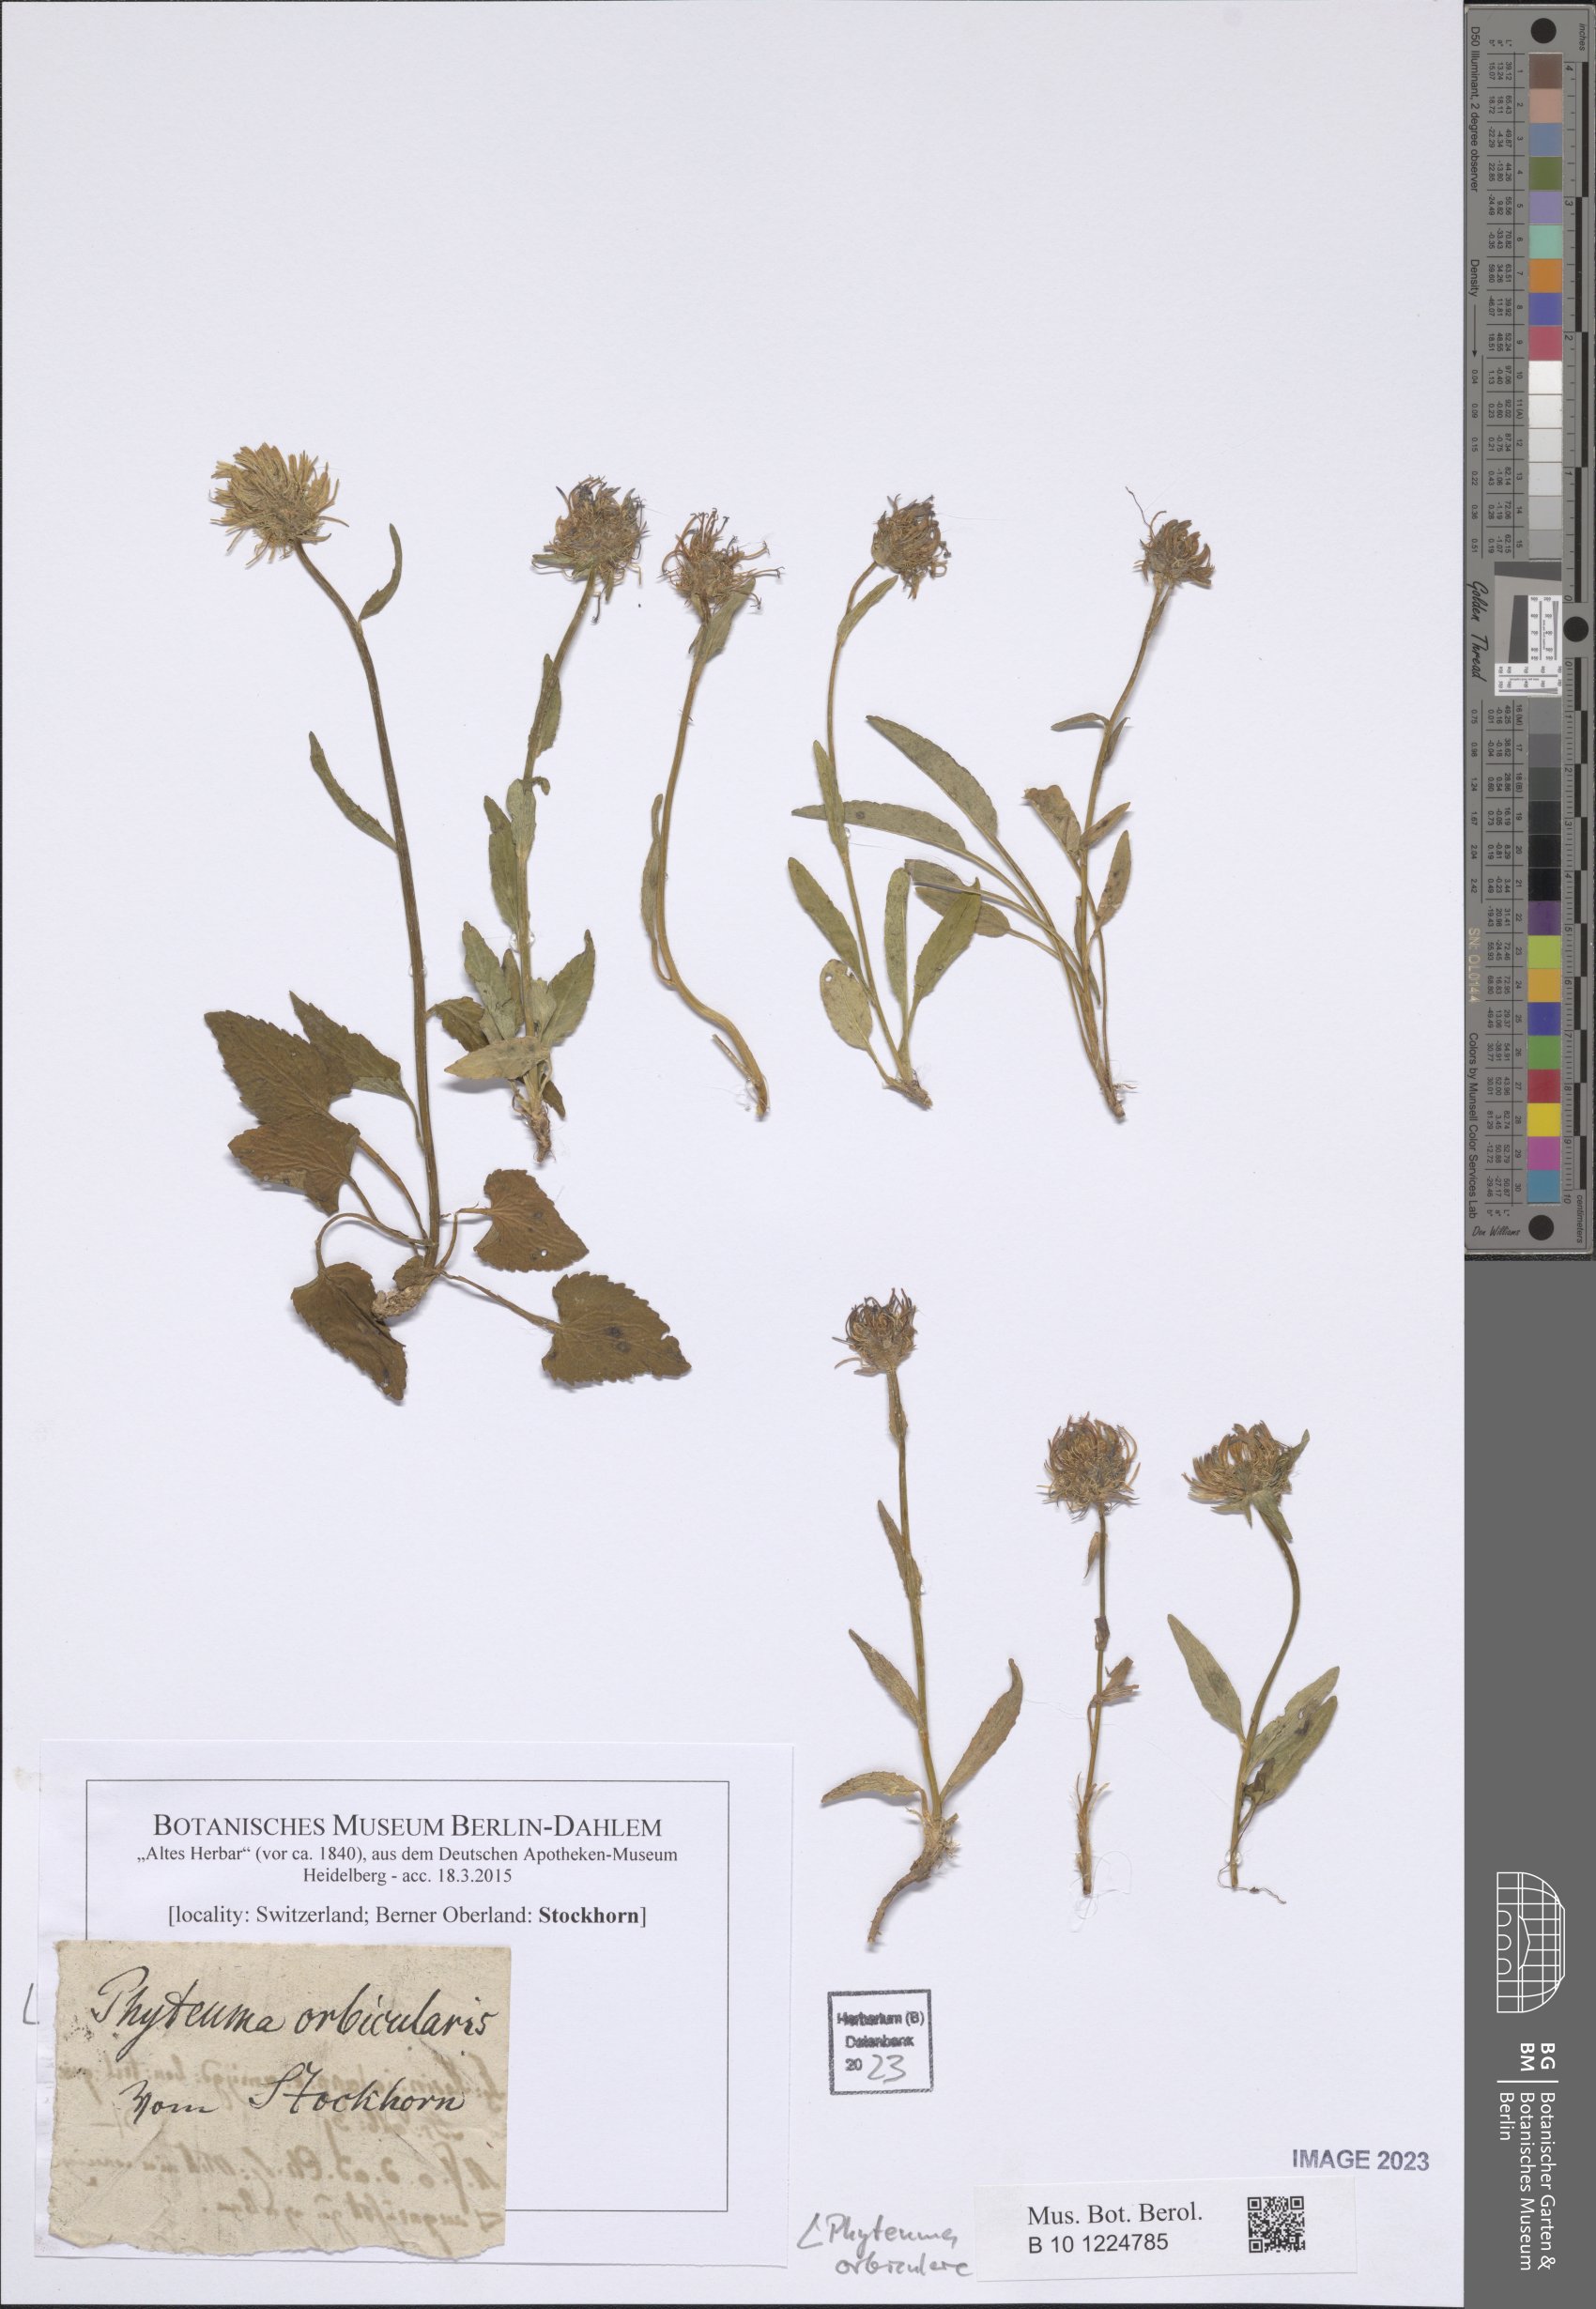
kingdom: Plantae
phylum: Tracheophyta
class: Magnoliopsida
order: Asterales
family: Campanulaceae
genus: Phyteuma
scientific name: Phyteuma orbiculare
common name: Round-headed rampion
